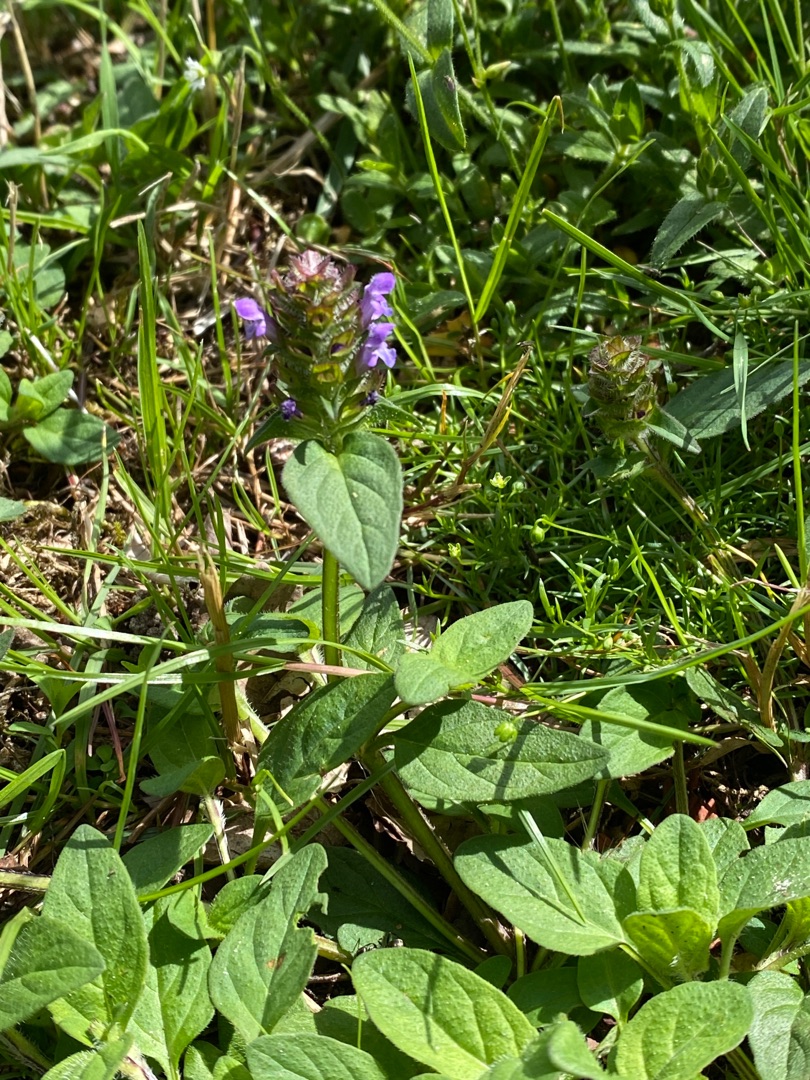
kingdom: Plantae
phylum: Tracheophyta
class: Magnoliopsida
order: Lamiales
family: Lamiaceae
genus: Prunella
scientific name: Prunella vulgaris
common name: Almindelig brunelle
